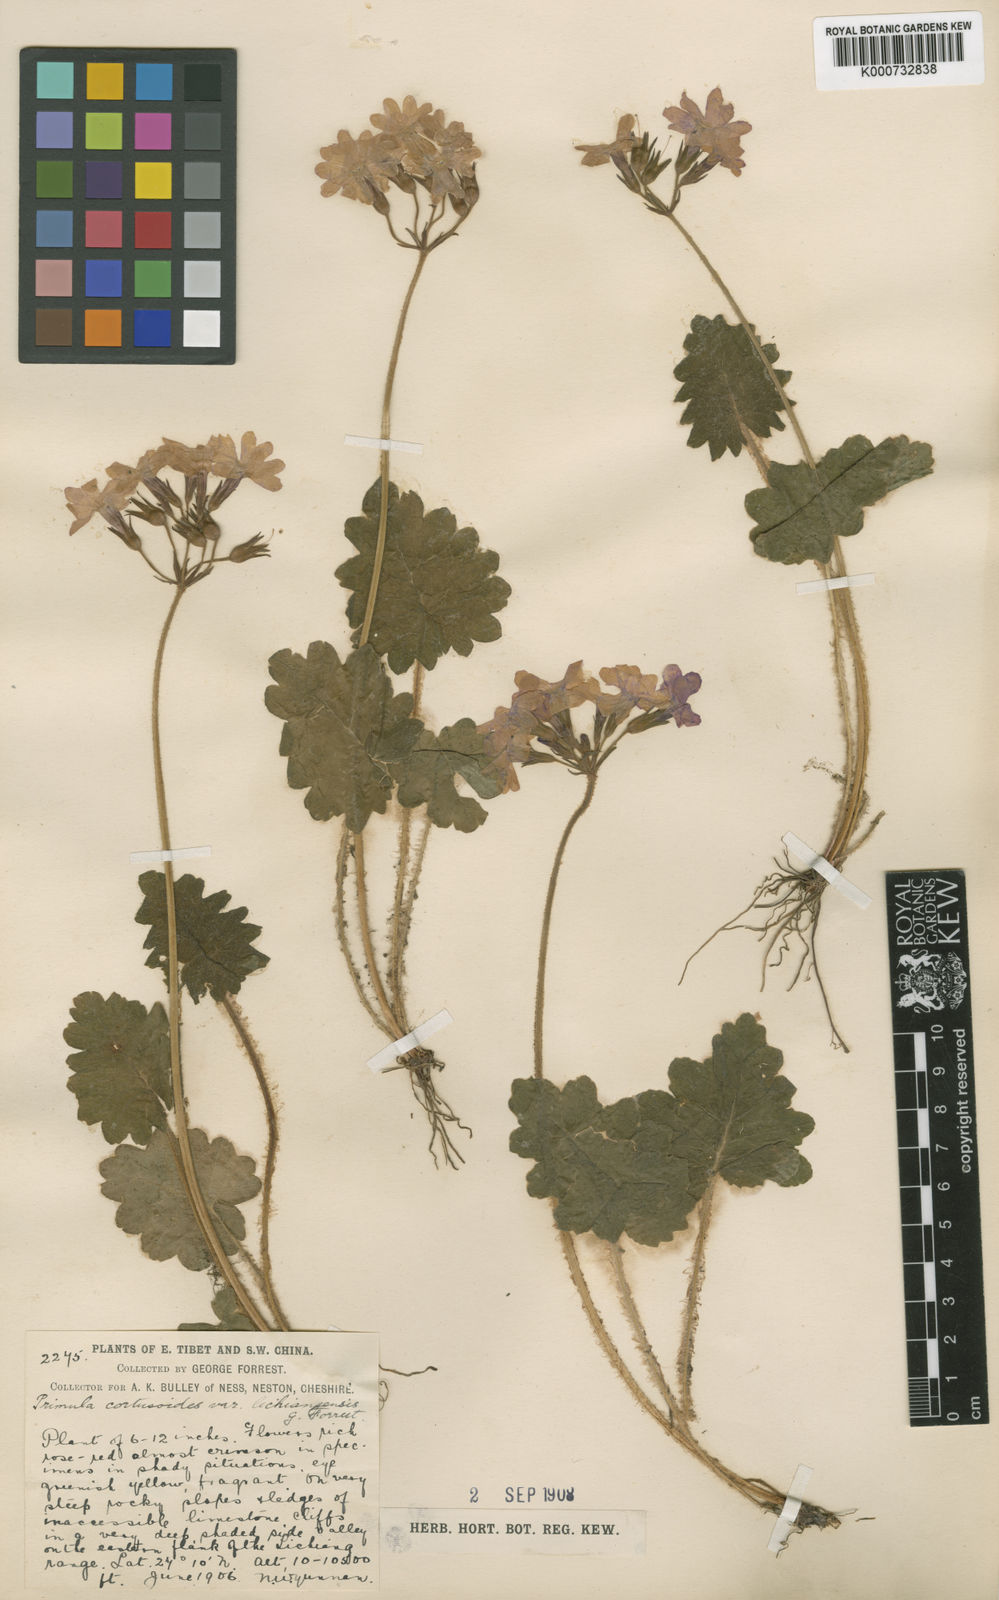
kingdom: Plantae
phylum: Tracheophyta
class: Magnoliopsida
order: Ericales
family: Primulaceae
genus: Primula
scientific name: Primula
